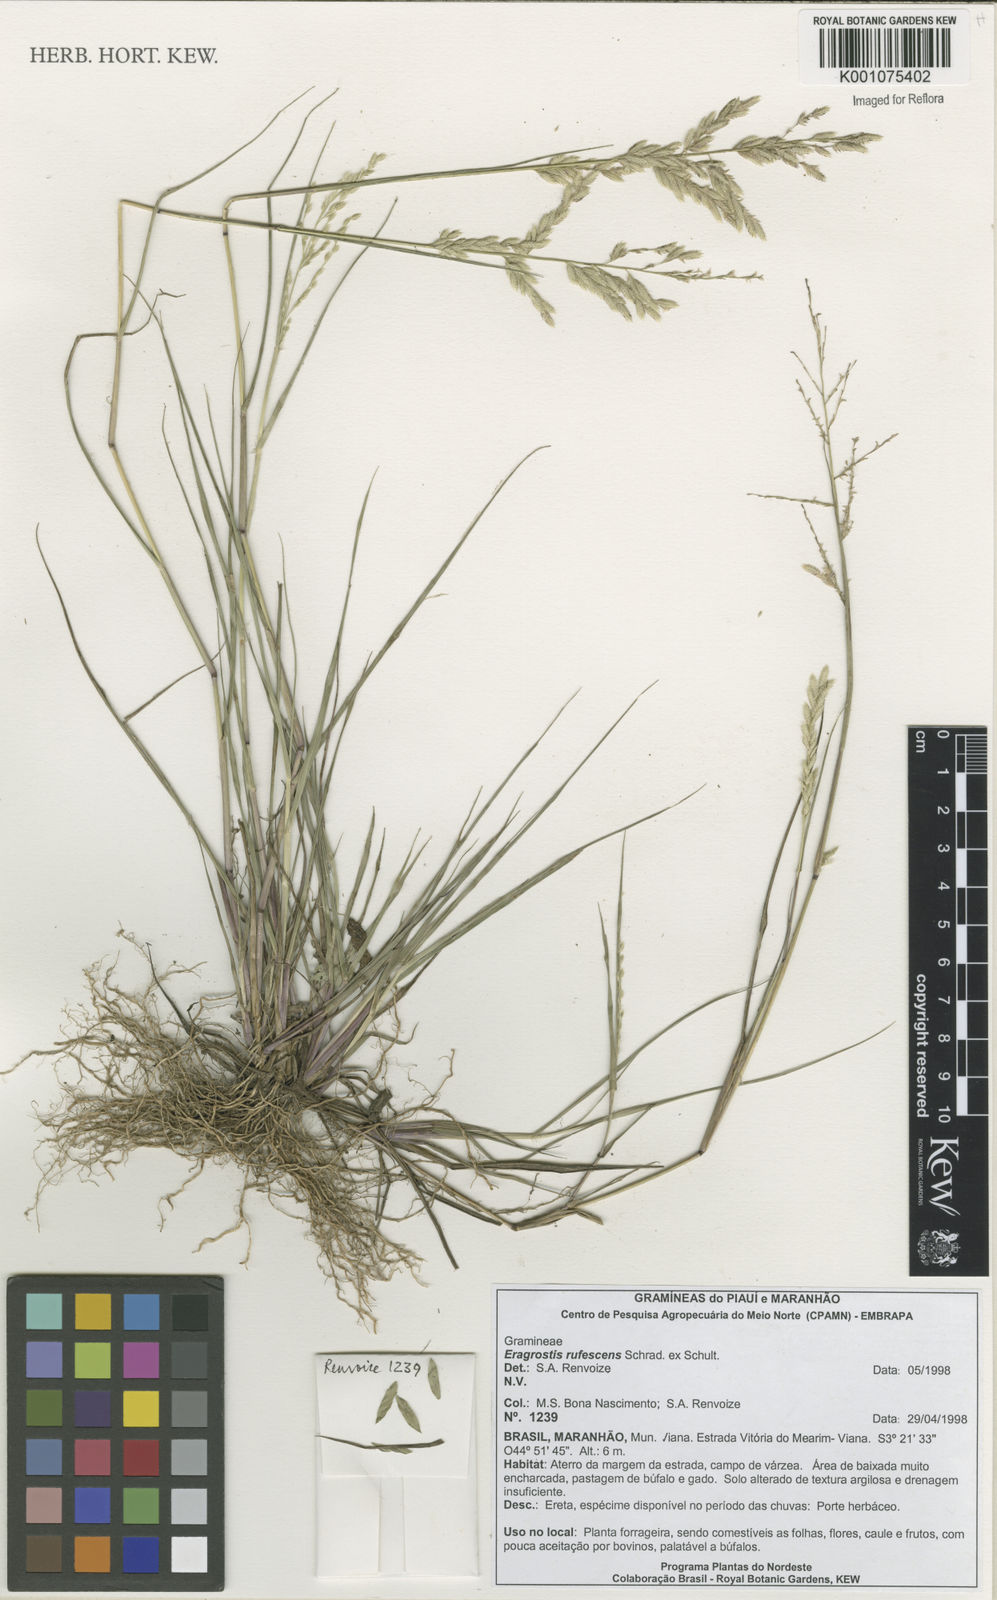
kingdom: Plantae
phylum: Tracheophyta
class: Liliopsida
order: Poales
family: Poaceae
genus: Eragrostis
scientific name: Eragrostis rufescens
